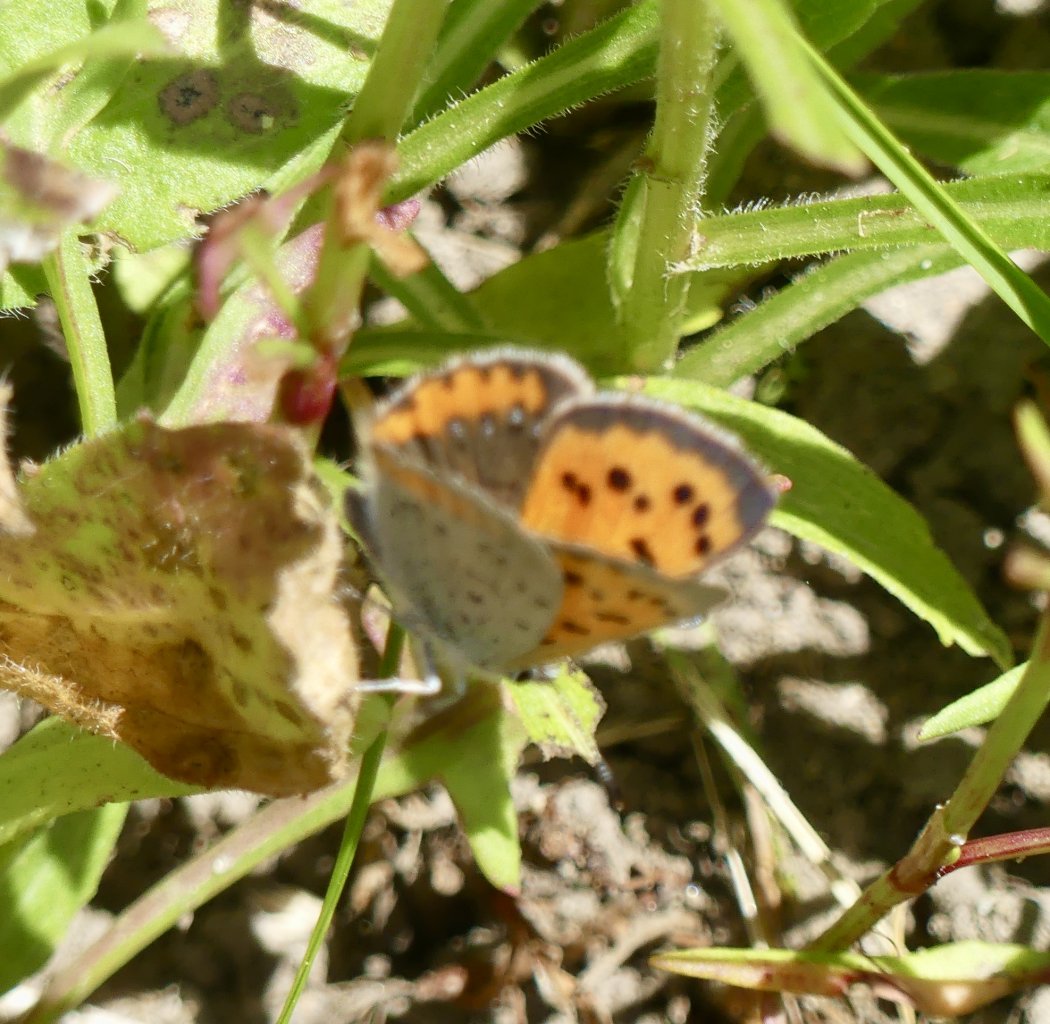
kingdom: Animalia
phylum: Arthropoda
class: Insecta
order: Lepidoptera
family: Lycaenidae
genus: Lycaena
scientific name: Lycaena phlaeas
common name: American Copper
